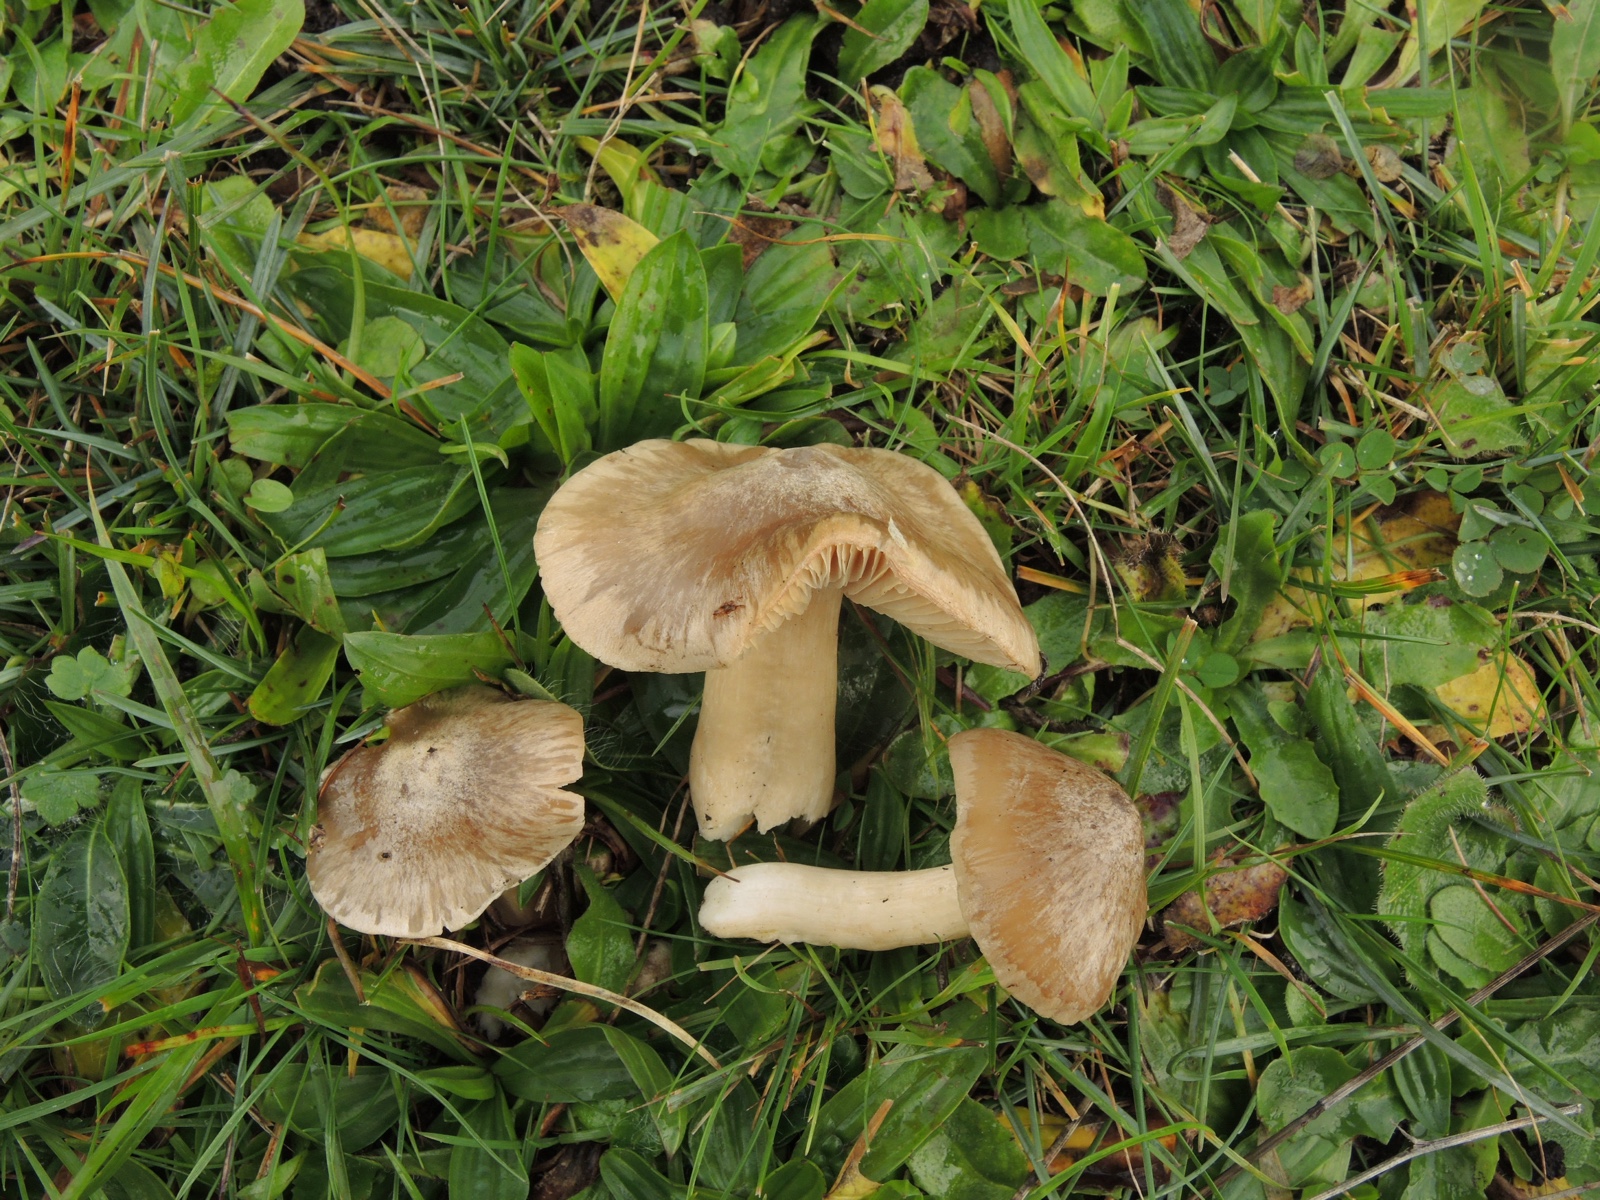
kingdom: Fungi
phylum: Basidiomycota
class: Agaricomycetes
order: Agaricales
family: Entolomataceae
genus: Entoloma
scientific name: Entoloma prunuloides
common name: mel-rødblad
